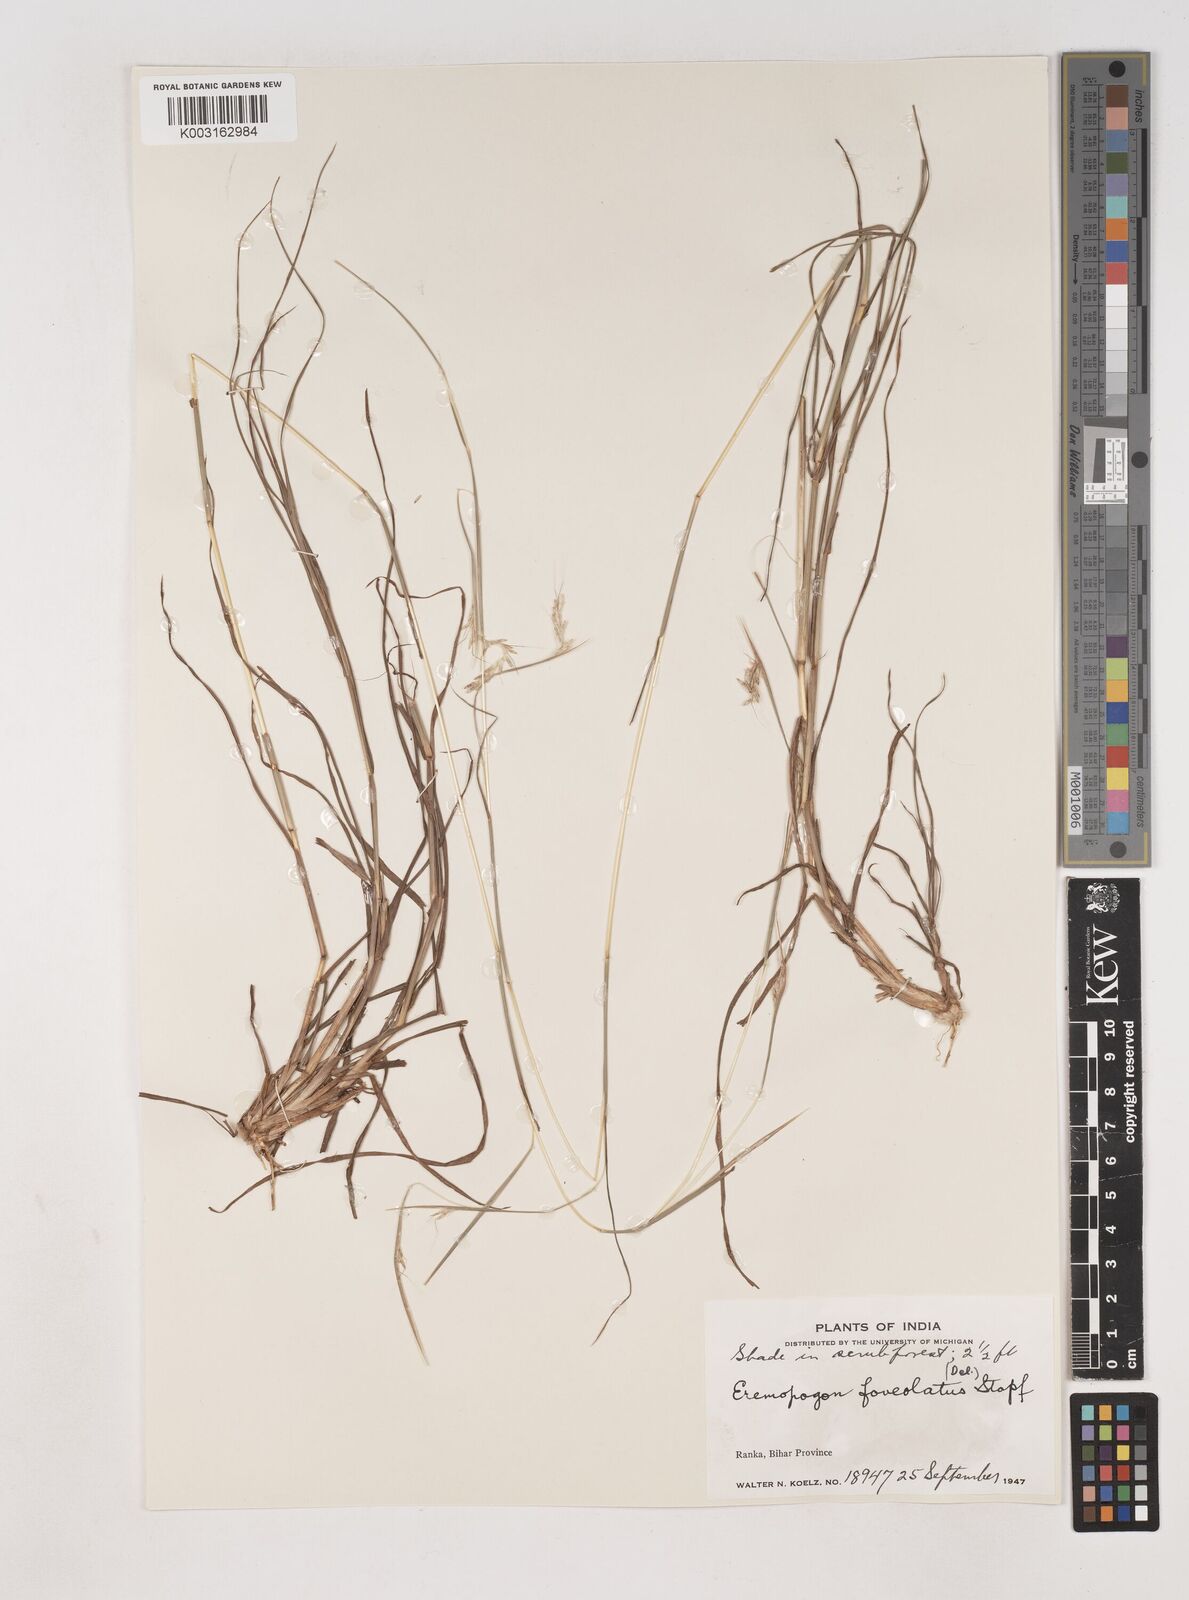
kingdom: Plantae
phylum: Tracheophyta
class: Liliopsida
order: Poales
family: Poaceae
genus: Dichanthium
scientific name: Dichanthium foveolatum
